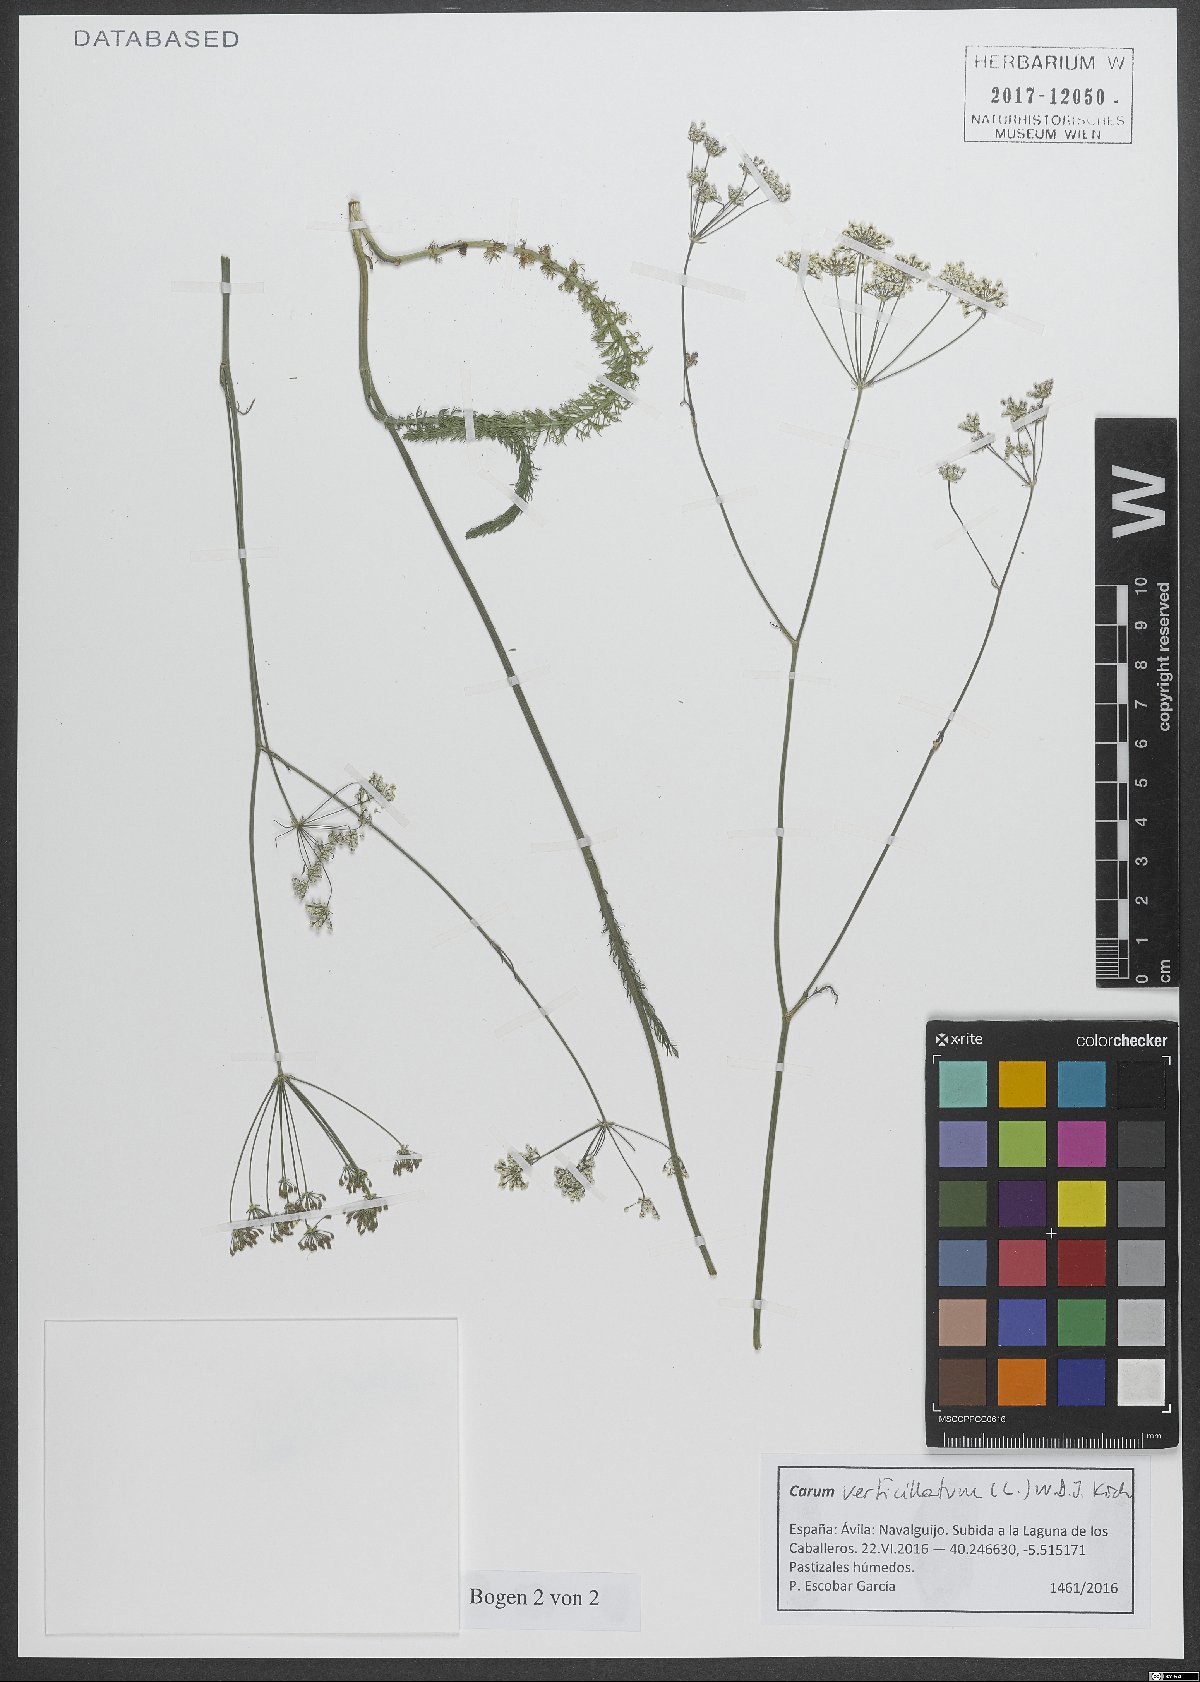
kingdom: Plantae
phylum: Tracheophyta
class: Magnoliopsida
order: Apiales
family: Apiaceae
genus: Trocdaris
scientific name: Trocdaris verticillatum
